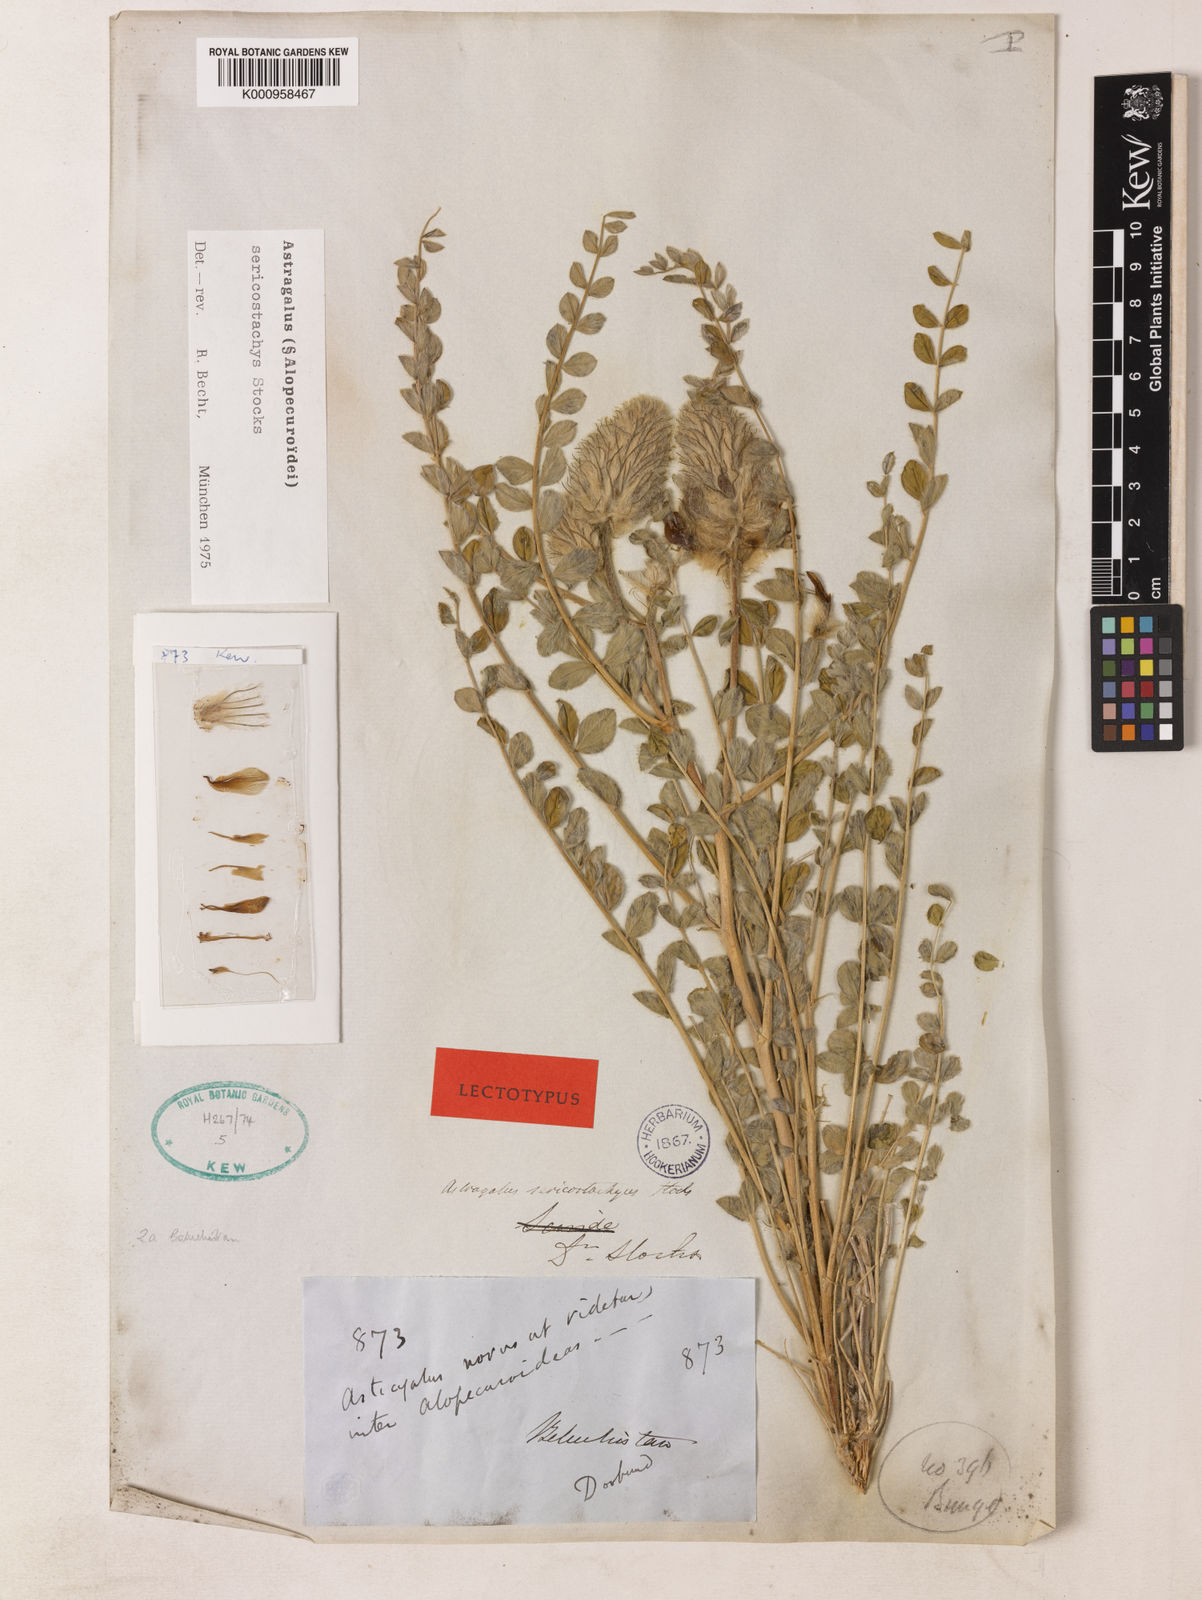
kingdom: Plantae
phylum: Tracheophyta
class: Magnoliopsida
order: Fabales
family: Fabaceae
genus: Astragalus
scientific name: Astragalus
